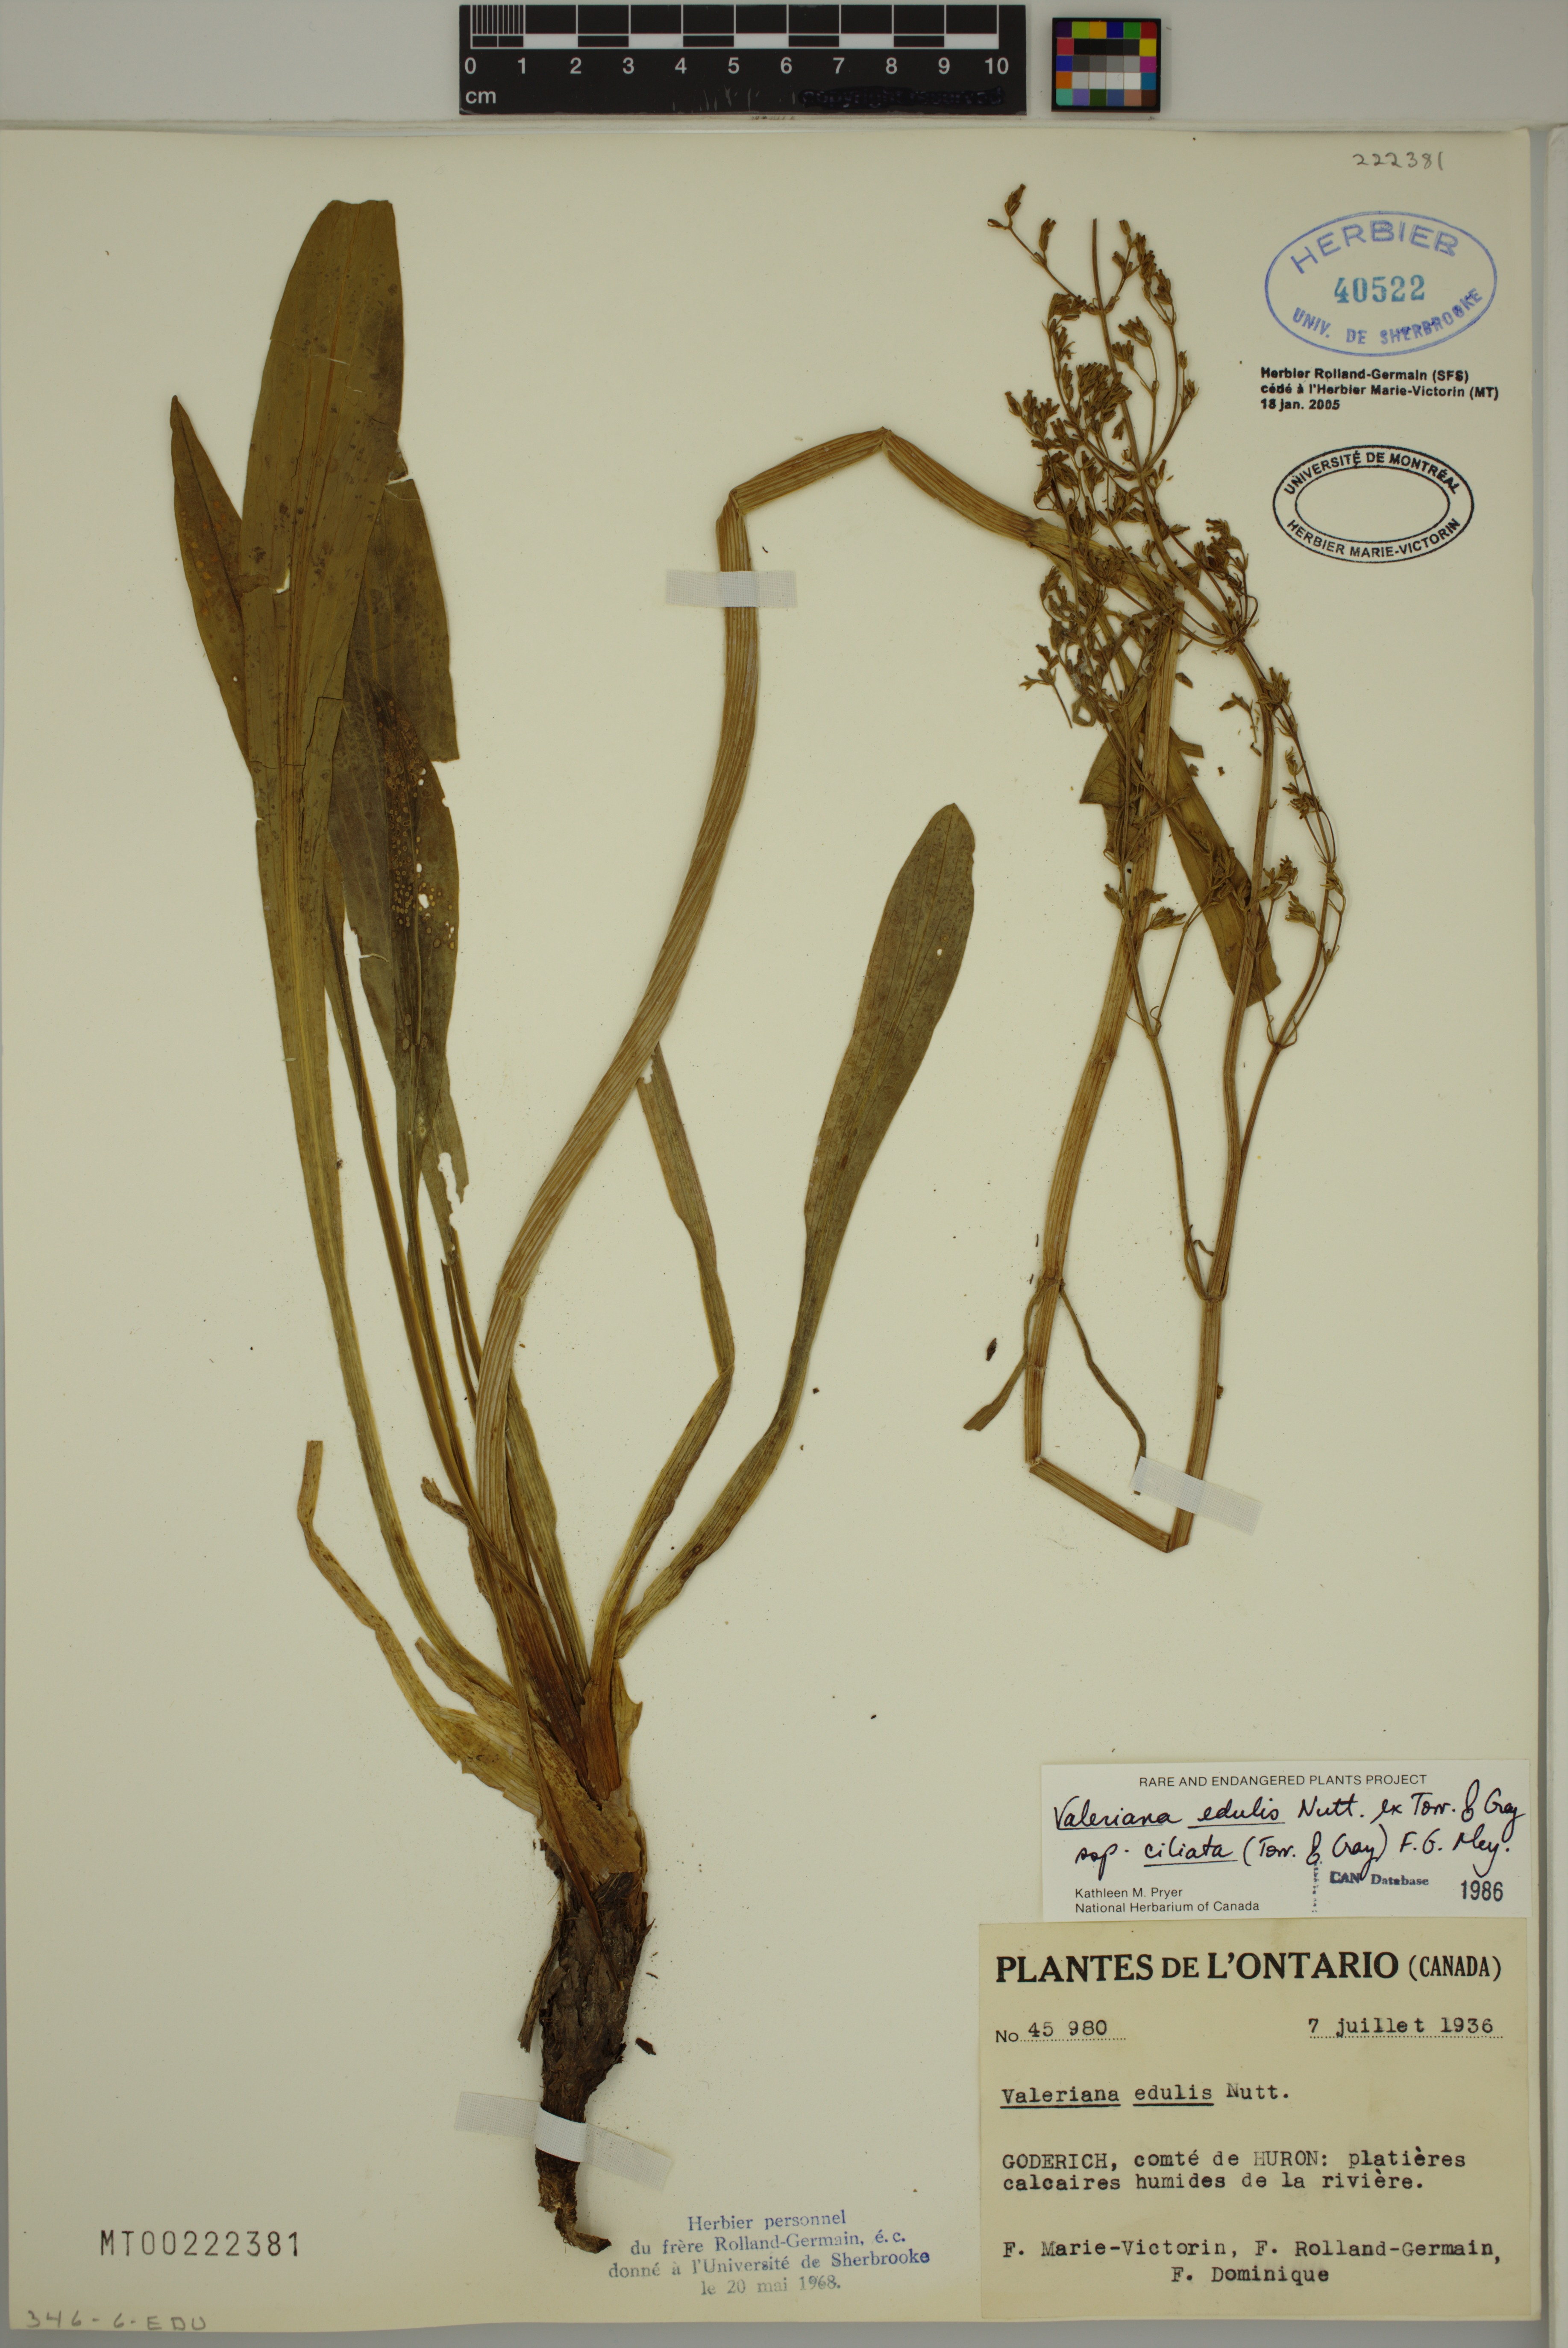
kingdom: Plantae
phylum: Tracheophyta
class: Magnoliopsida
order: Dipsacales
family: Caprifoliaceae
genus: Valeriana
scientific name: Valeriana edulis
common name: Taproot valerian
